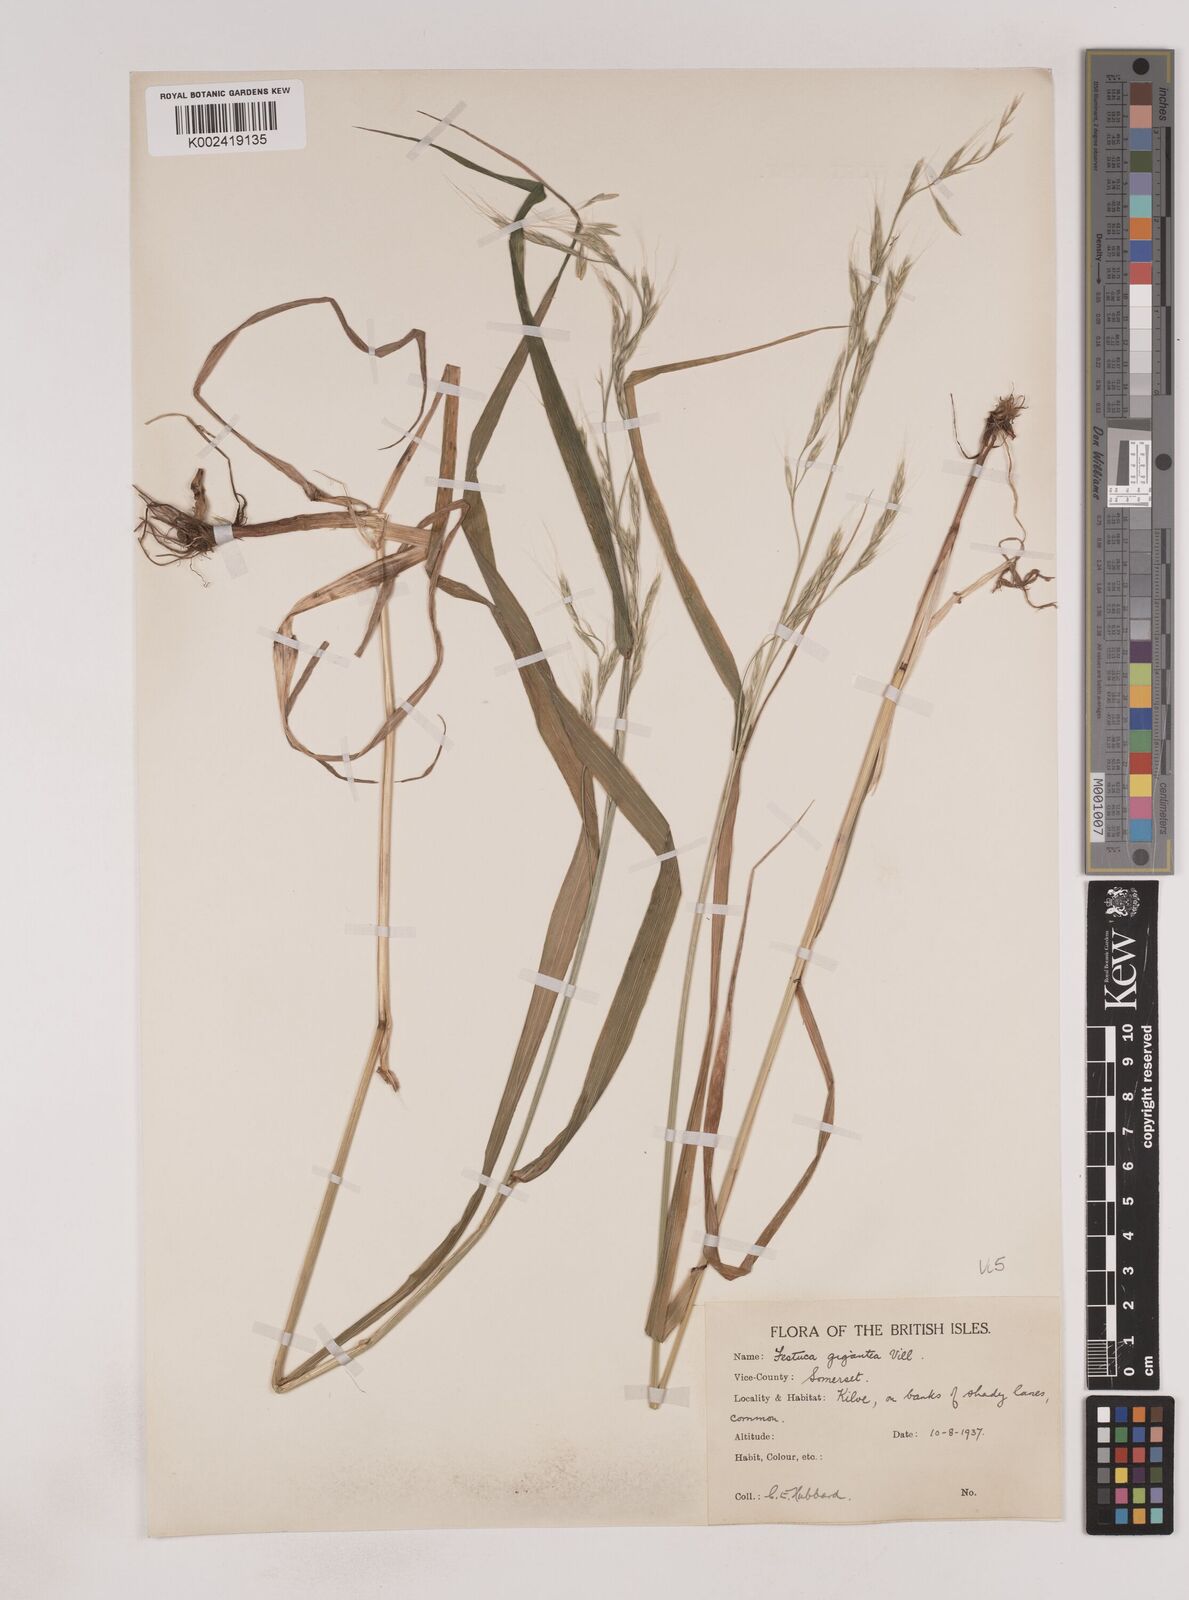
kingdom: Plantae
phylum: Tracheophyta
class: Liliopsida
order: Poales
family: Poaceae
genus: Lolium
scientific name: Lolium giganteum
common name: Giant fescue
